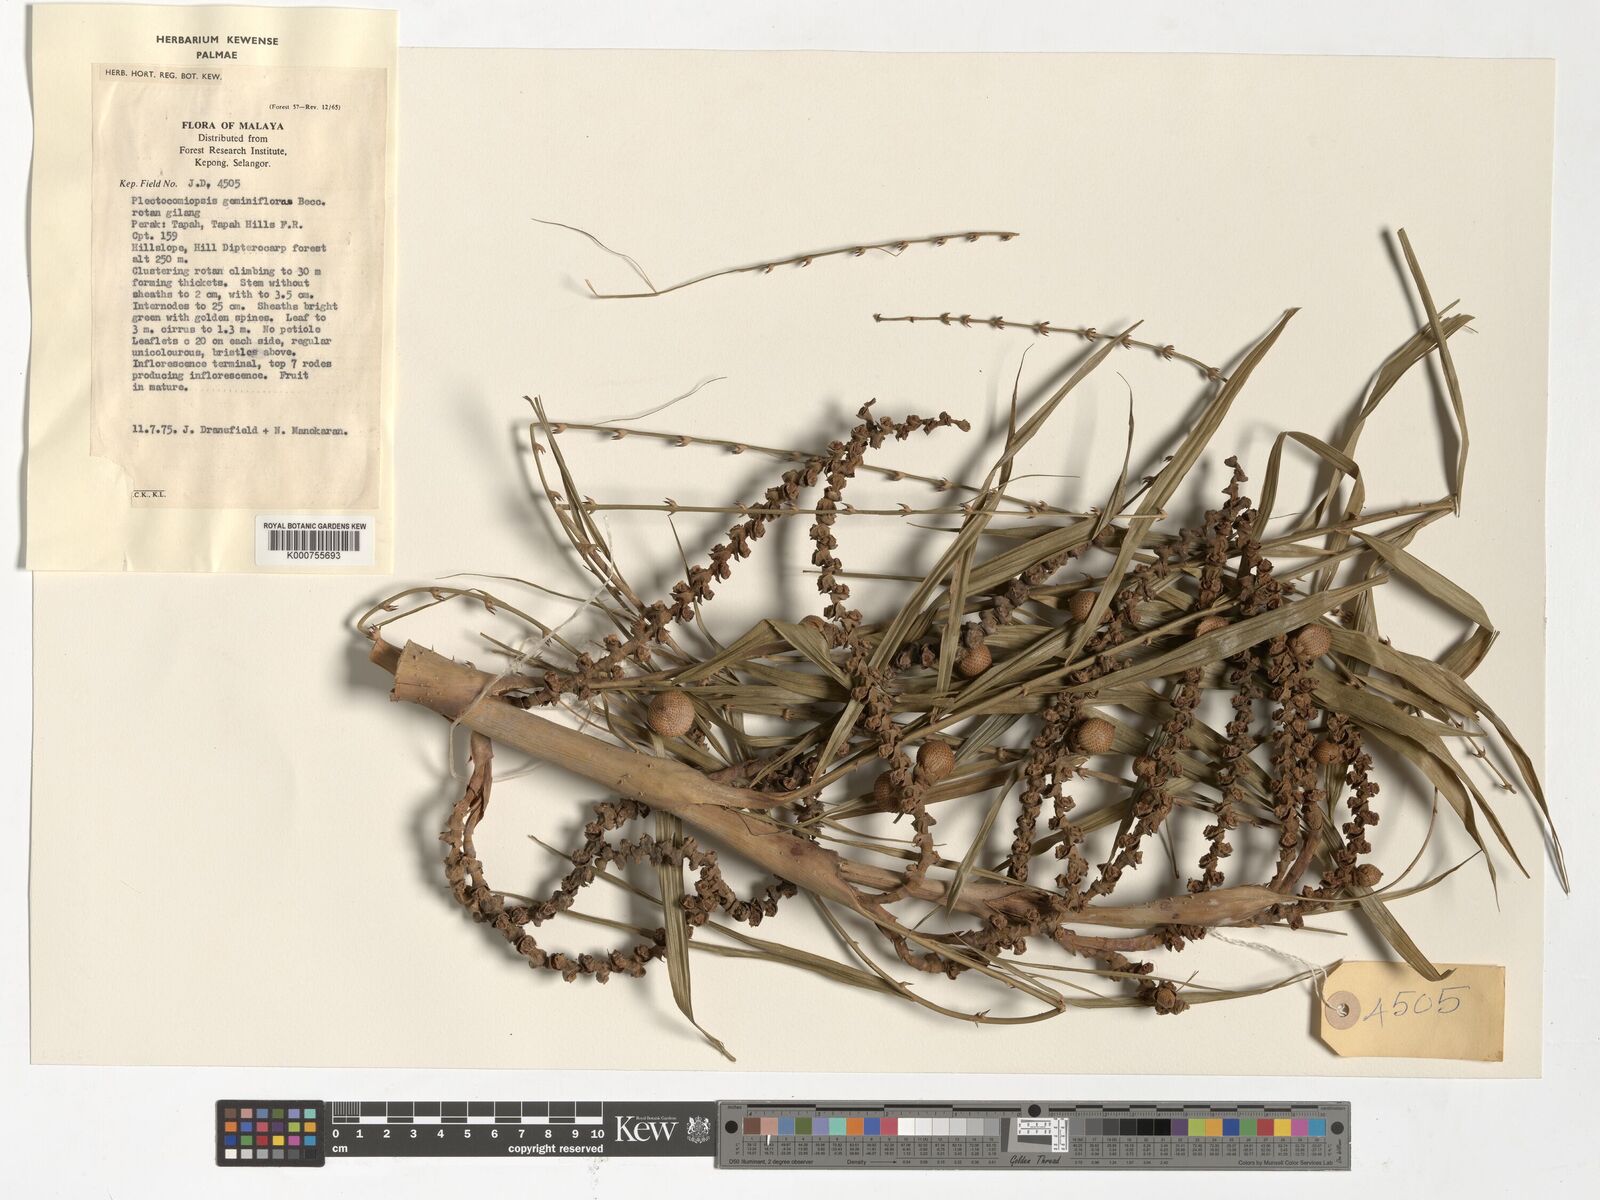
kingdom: Plantae
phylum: Tracheophyta
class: Liliopsida
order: Arecales
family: Arecaceae
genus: Plectocomiopsis
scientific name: Plectocomiopsis geminiflora
